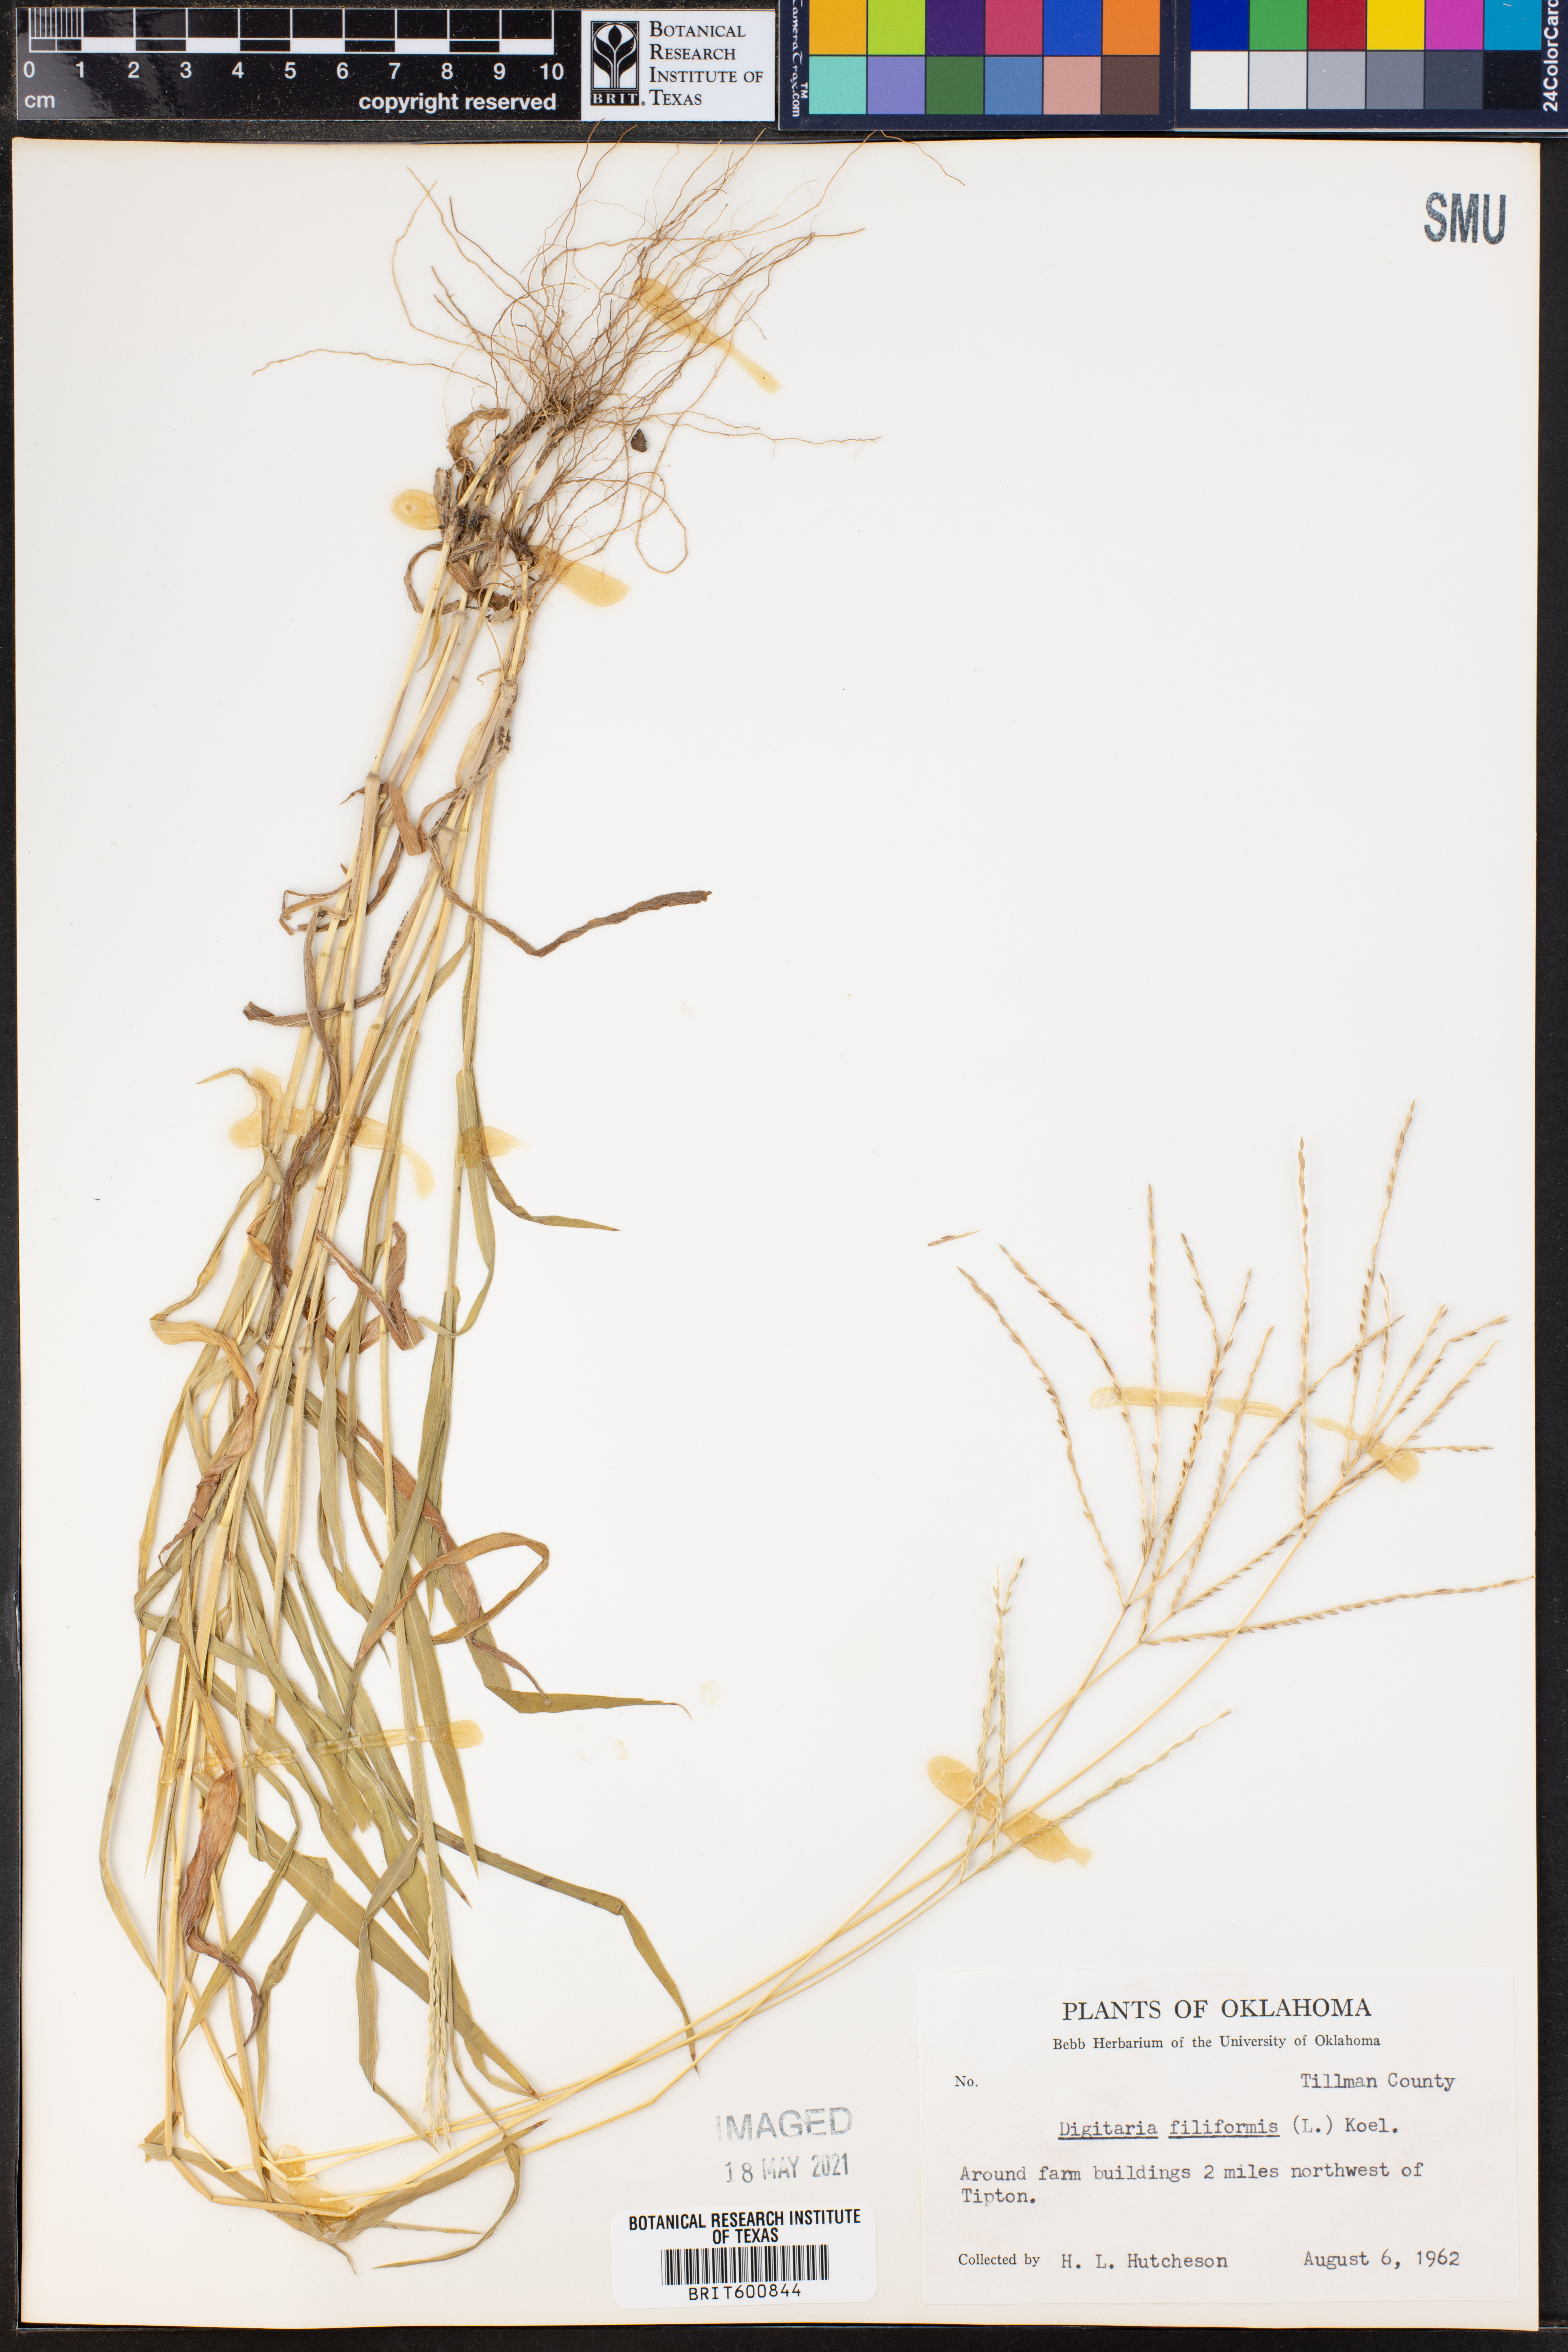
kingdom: Plantae
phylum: Tracheophyta
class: Liliopsida
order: Poales
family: Poaceae
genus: Digitaria
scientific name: Digitaria filiformis
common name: Slender crabgrass
